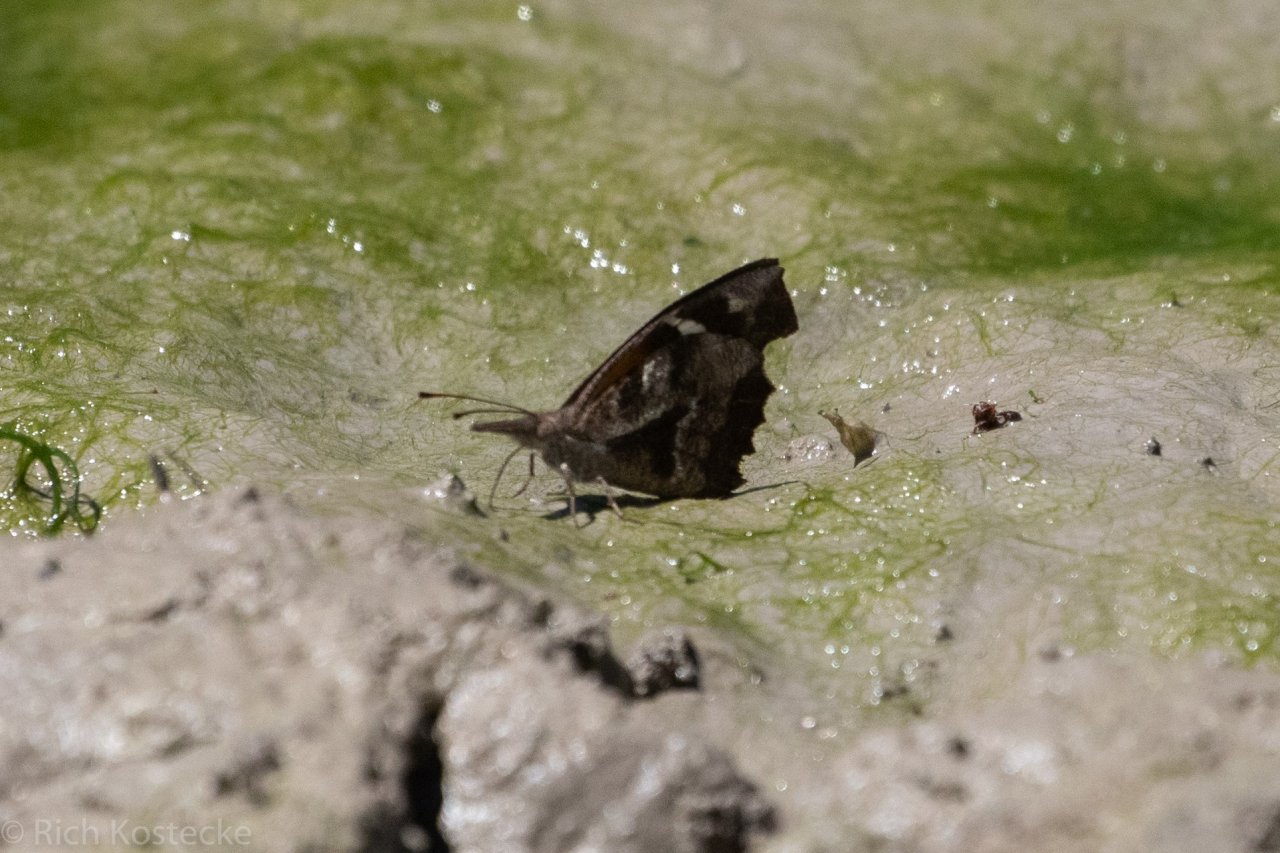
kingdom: Animalia
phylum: Arthropoda
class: Insecta
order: Lepidoptera
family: Nymphalidae
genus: Libytheana
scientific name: Libytheana carinenta
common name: American Snout
